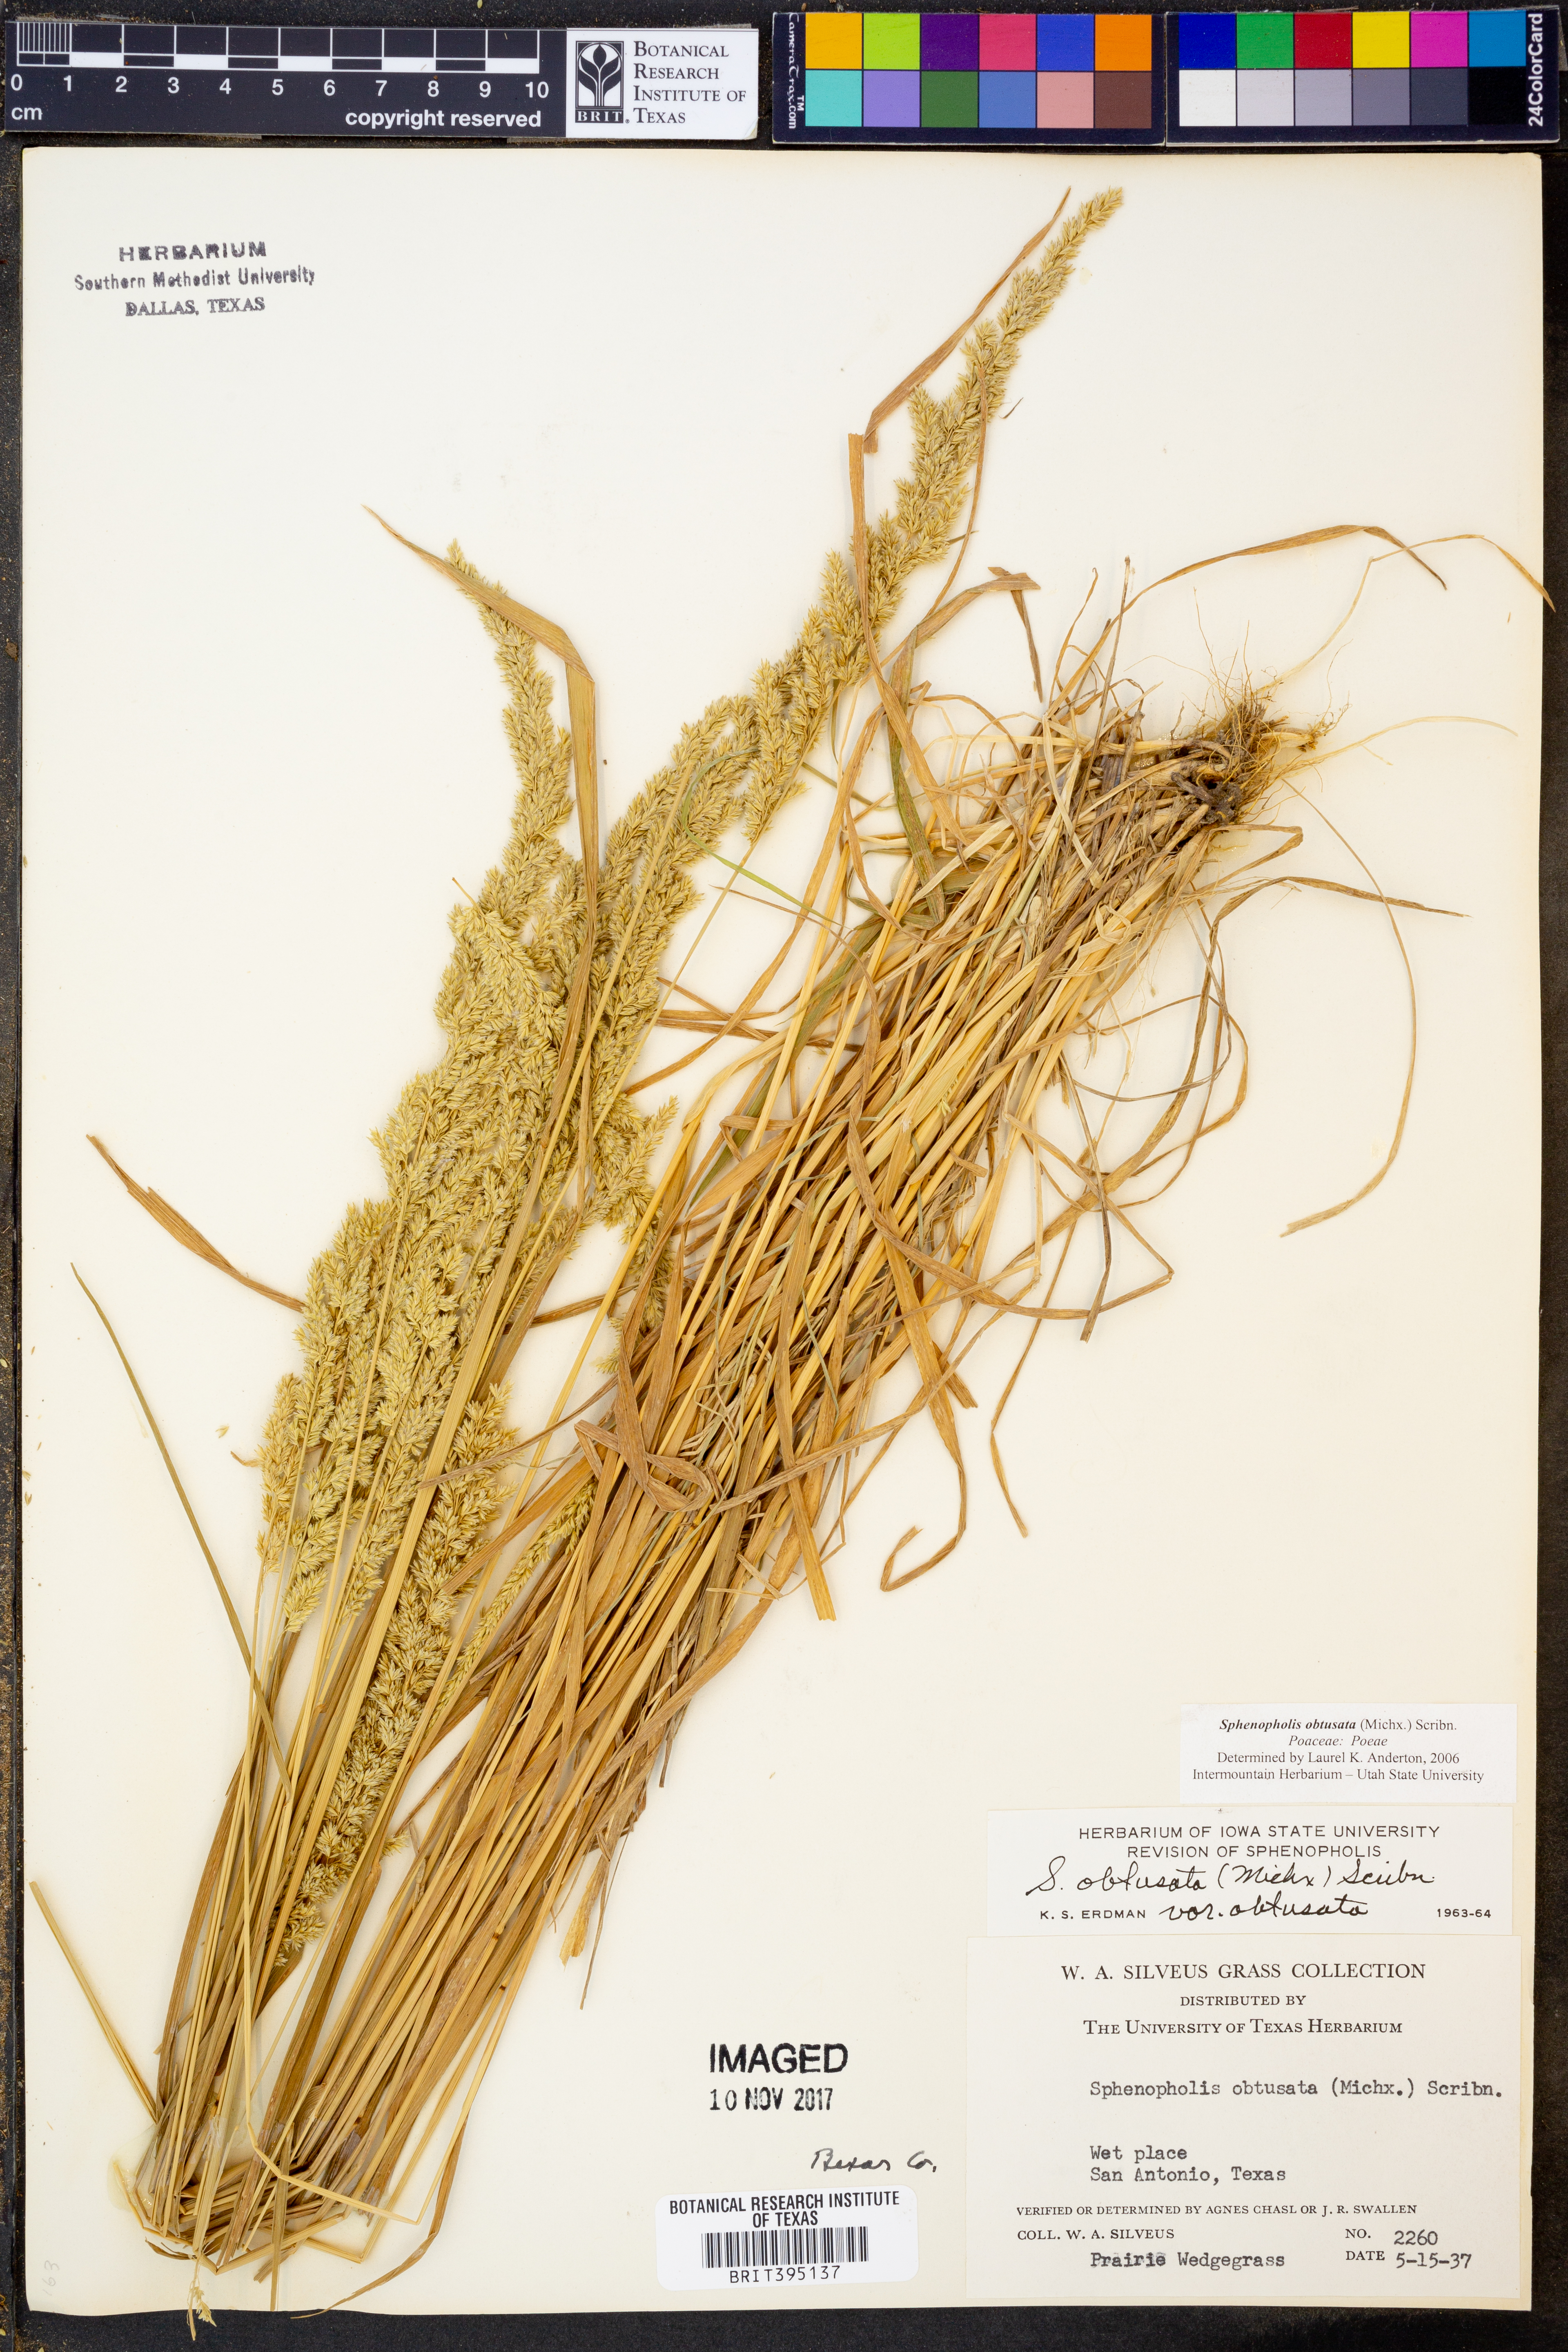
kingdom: Plantae
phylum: Tracheophyta
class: Liliopsida
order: Poales
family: Poaceae
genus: Sphenopholis
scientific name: Sphenopholis obtusata
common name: Prairie grass
